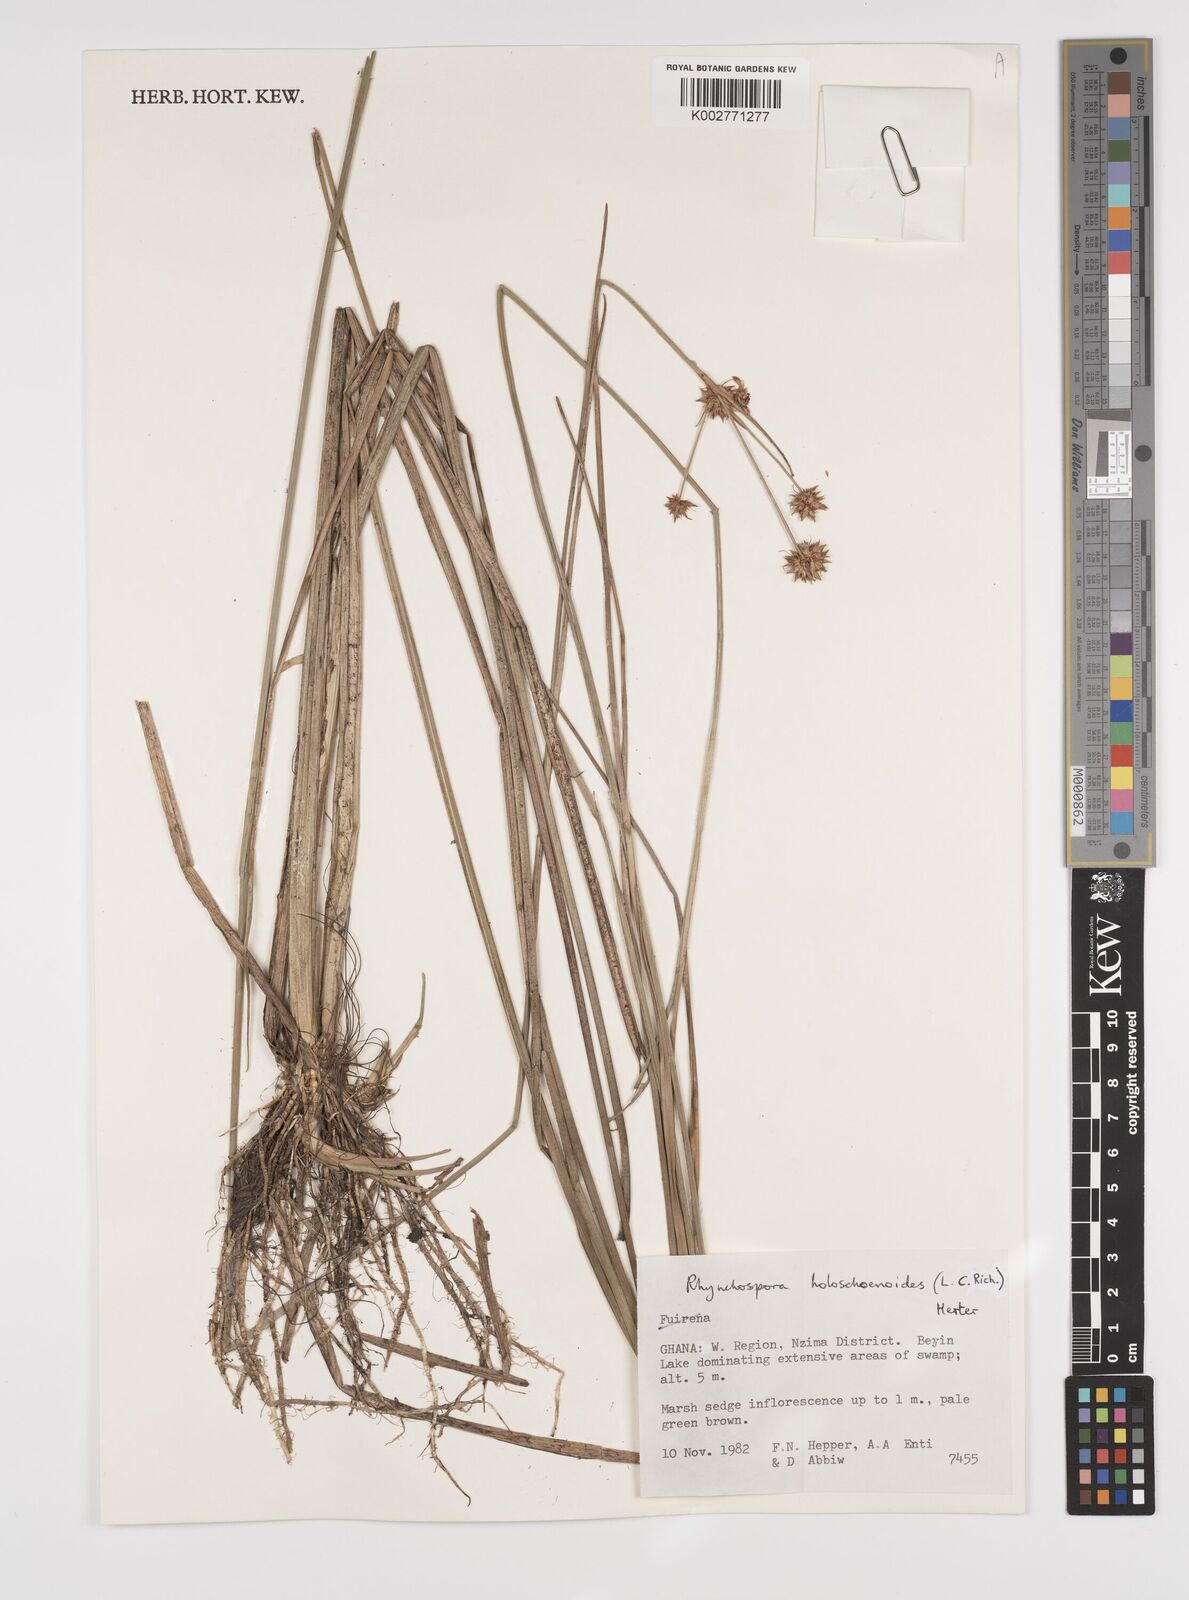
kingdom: Plantae
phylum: Tracheophyta
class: Liliopsida
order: Poales
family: Cyperaceae
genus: Rhynchospora
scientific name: Rhynchospora holoschoenoides
